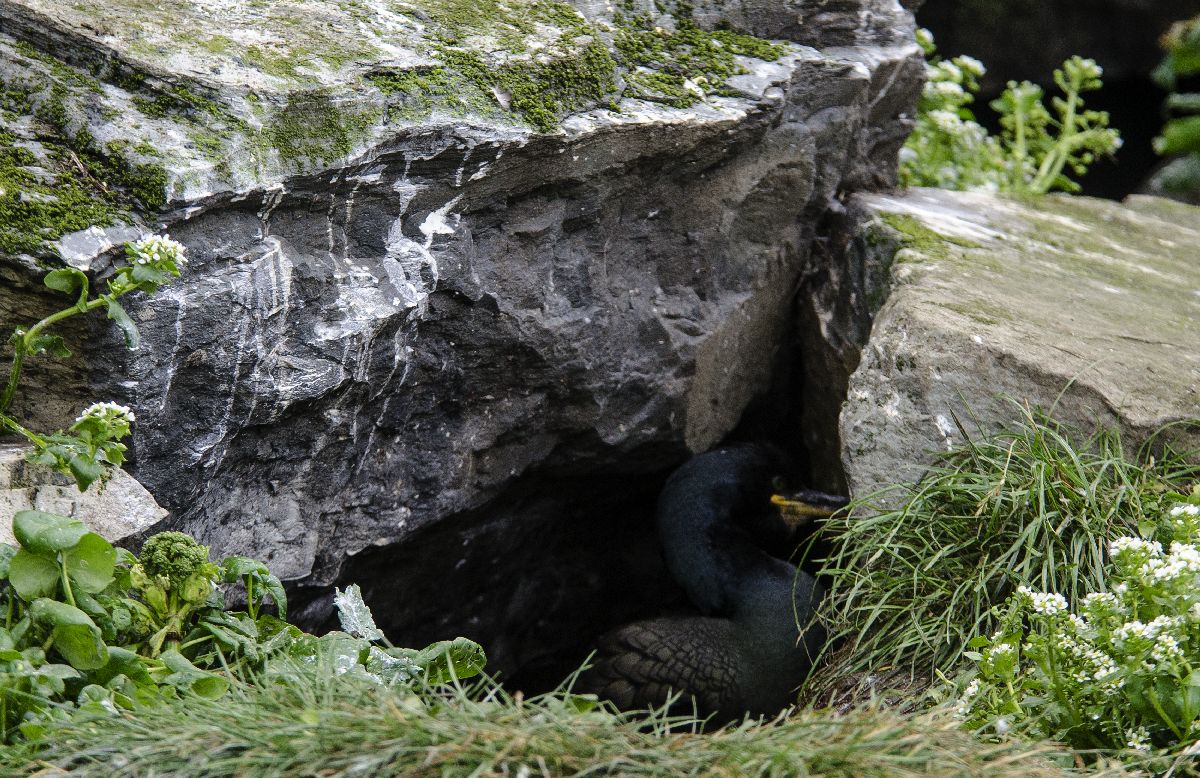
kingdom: Animalia
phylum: Chordata
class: Aves
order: Suliformes
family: Phalacrocoracidae
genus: Phalacrocorax
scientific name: Phalacrocorax aristotelis
